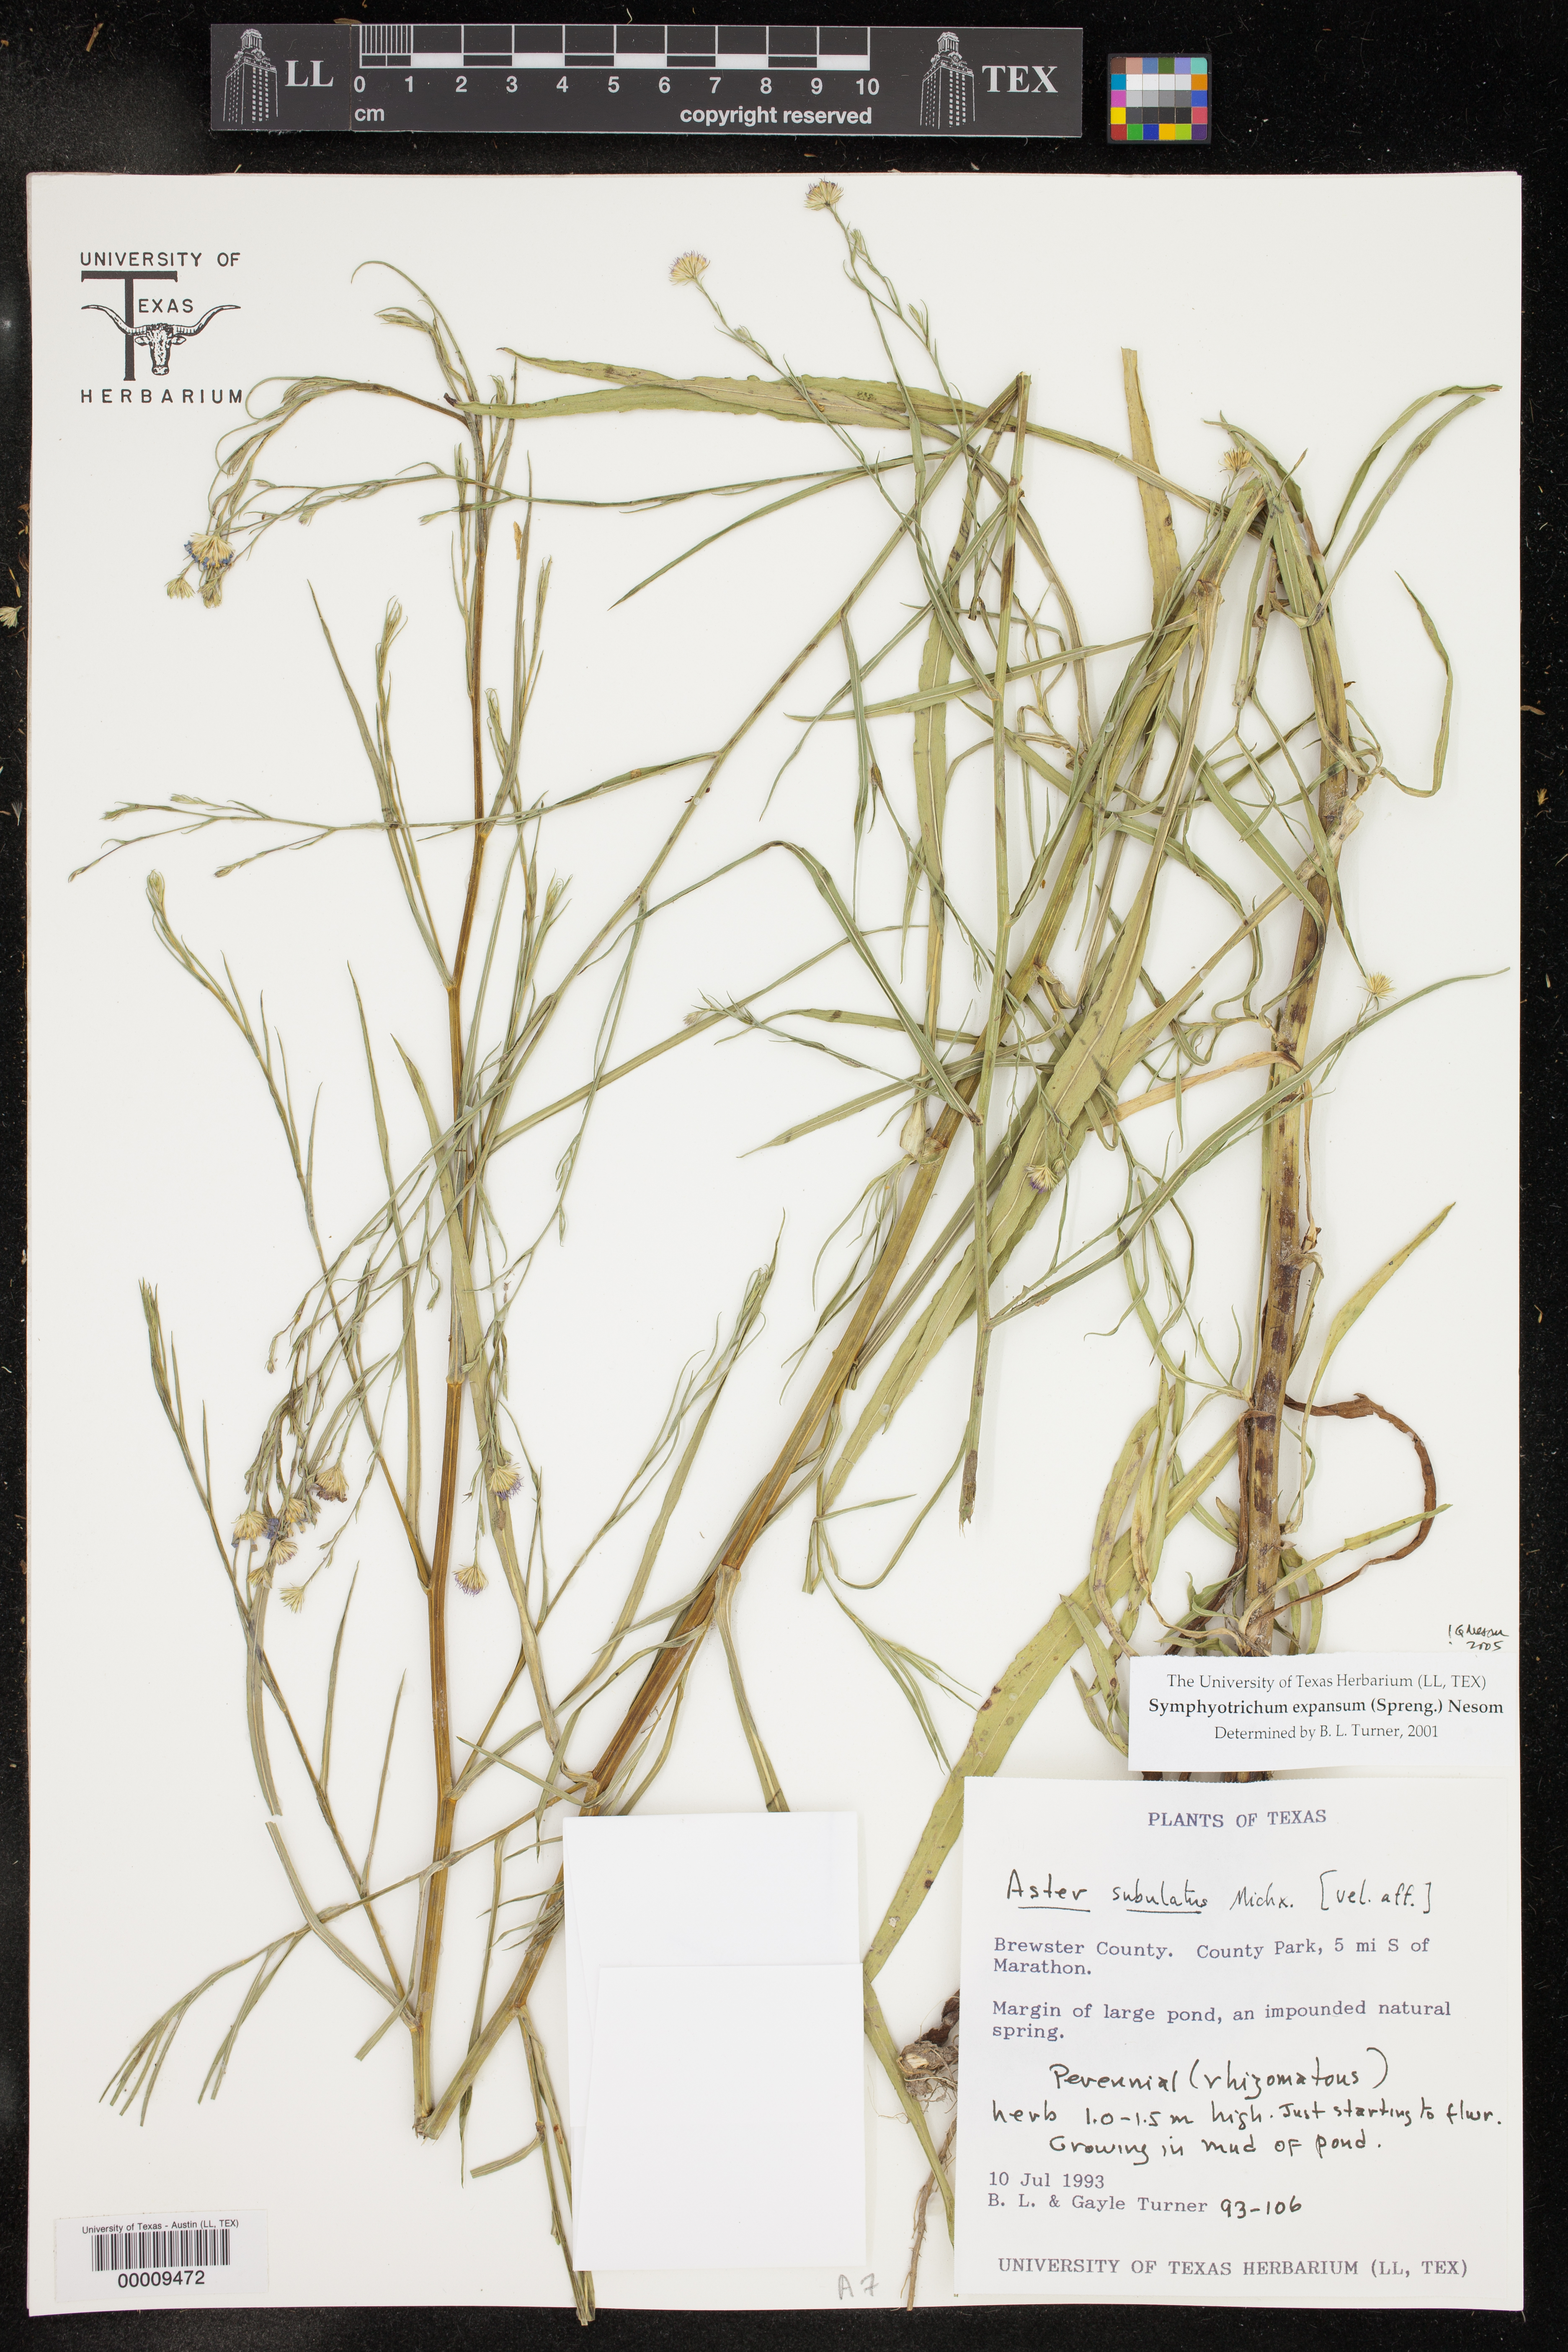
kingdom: Plantae
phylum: Tracheophyta
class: Magnoliopsida
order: Asterales
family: Asteraceae
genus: Symphyotrichum
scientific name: Symphyotrichum expansum
